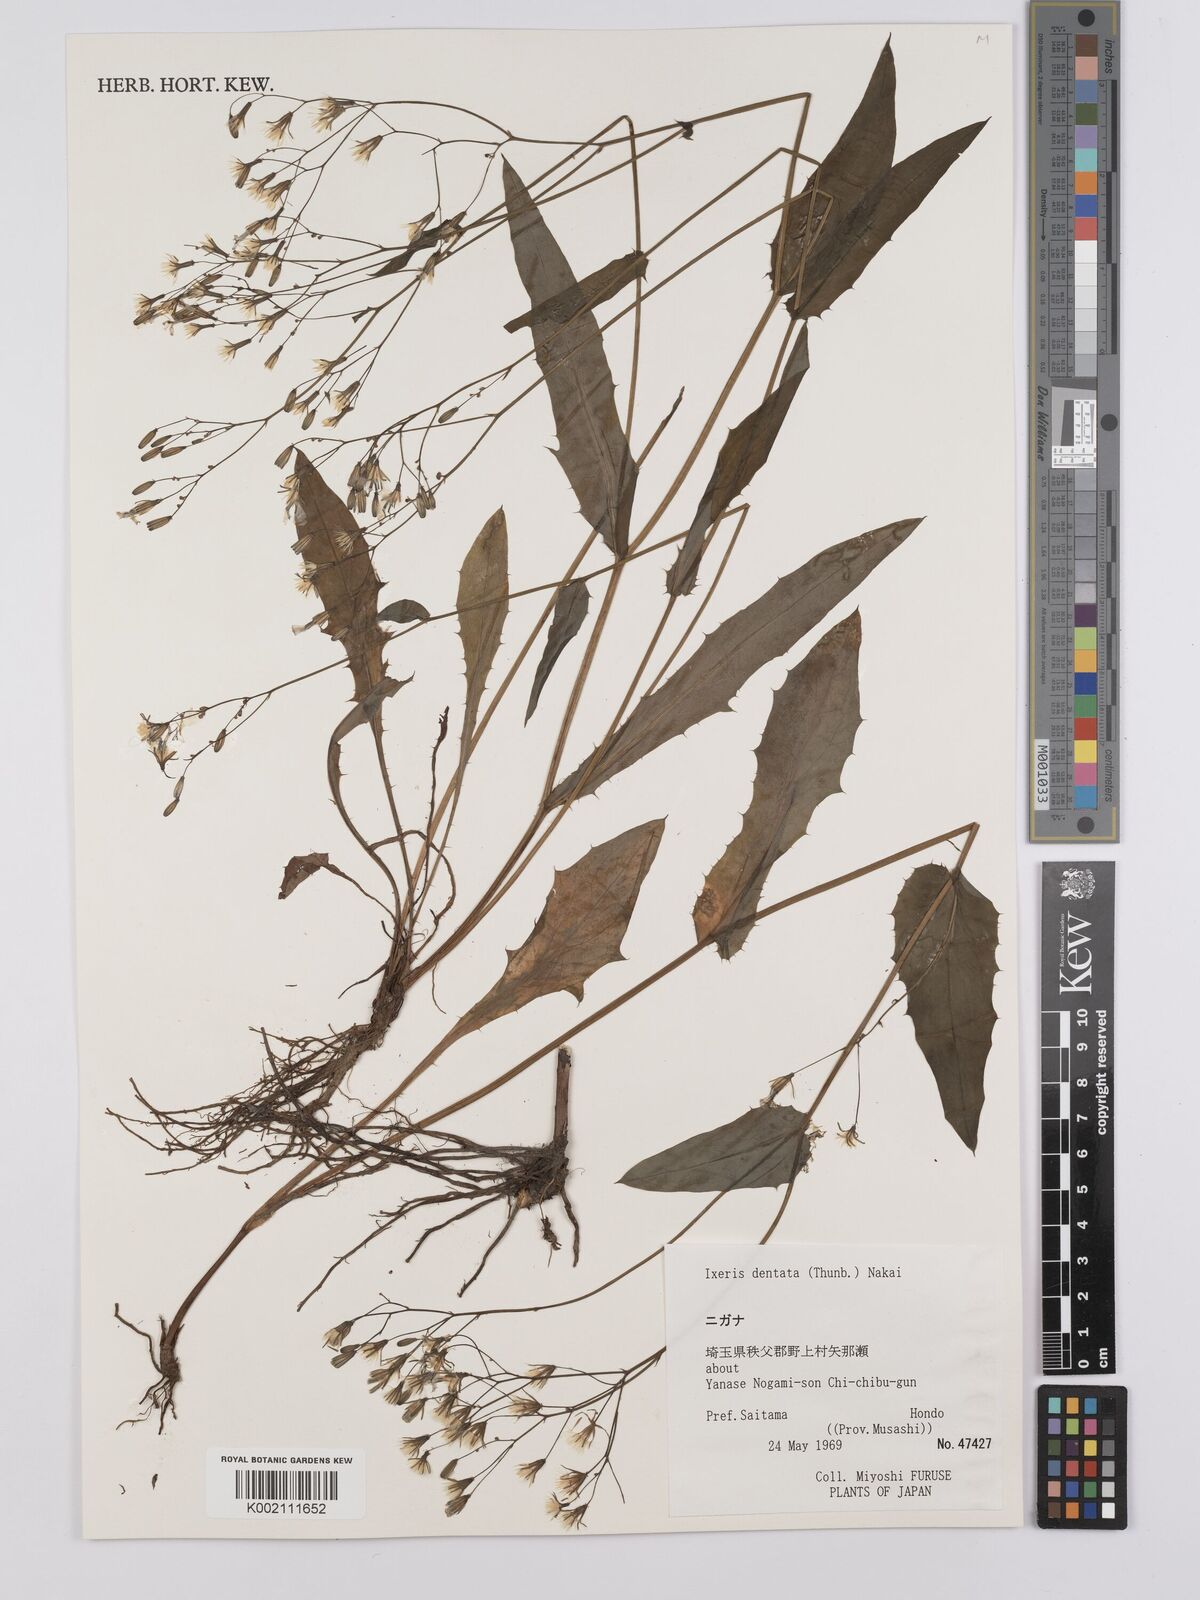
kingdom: Plantae
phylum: Tracheophyta
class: Magnoliopsida
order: Asterales
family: Asteraceae
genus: Ixeridium
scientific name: Ixeridium dentatum
